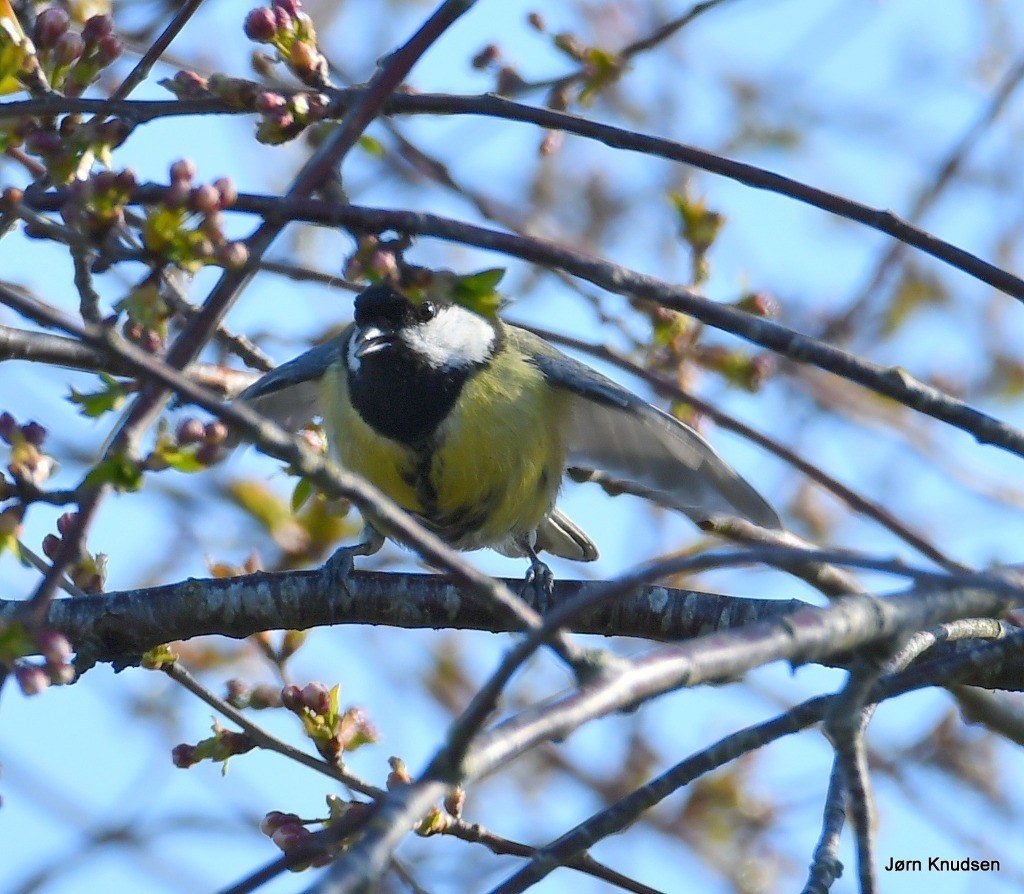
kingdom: Animalia
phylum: Chordata
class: Aves
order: Passeriformes
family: Paridae
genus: Parus
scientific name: Parus major
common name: Musvit
